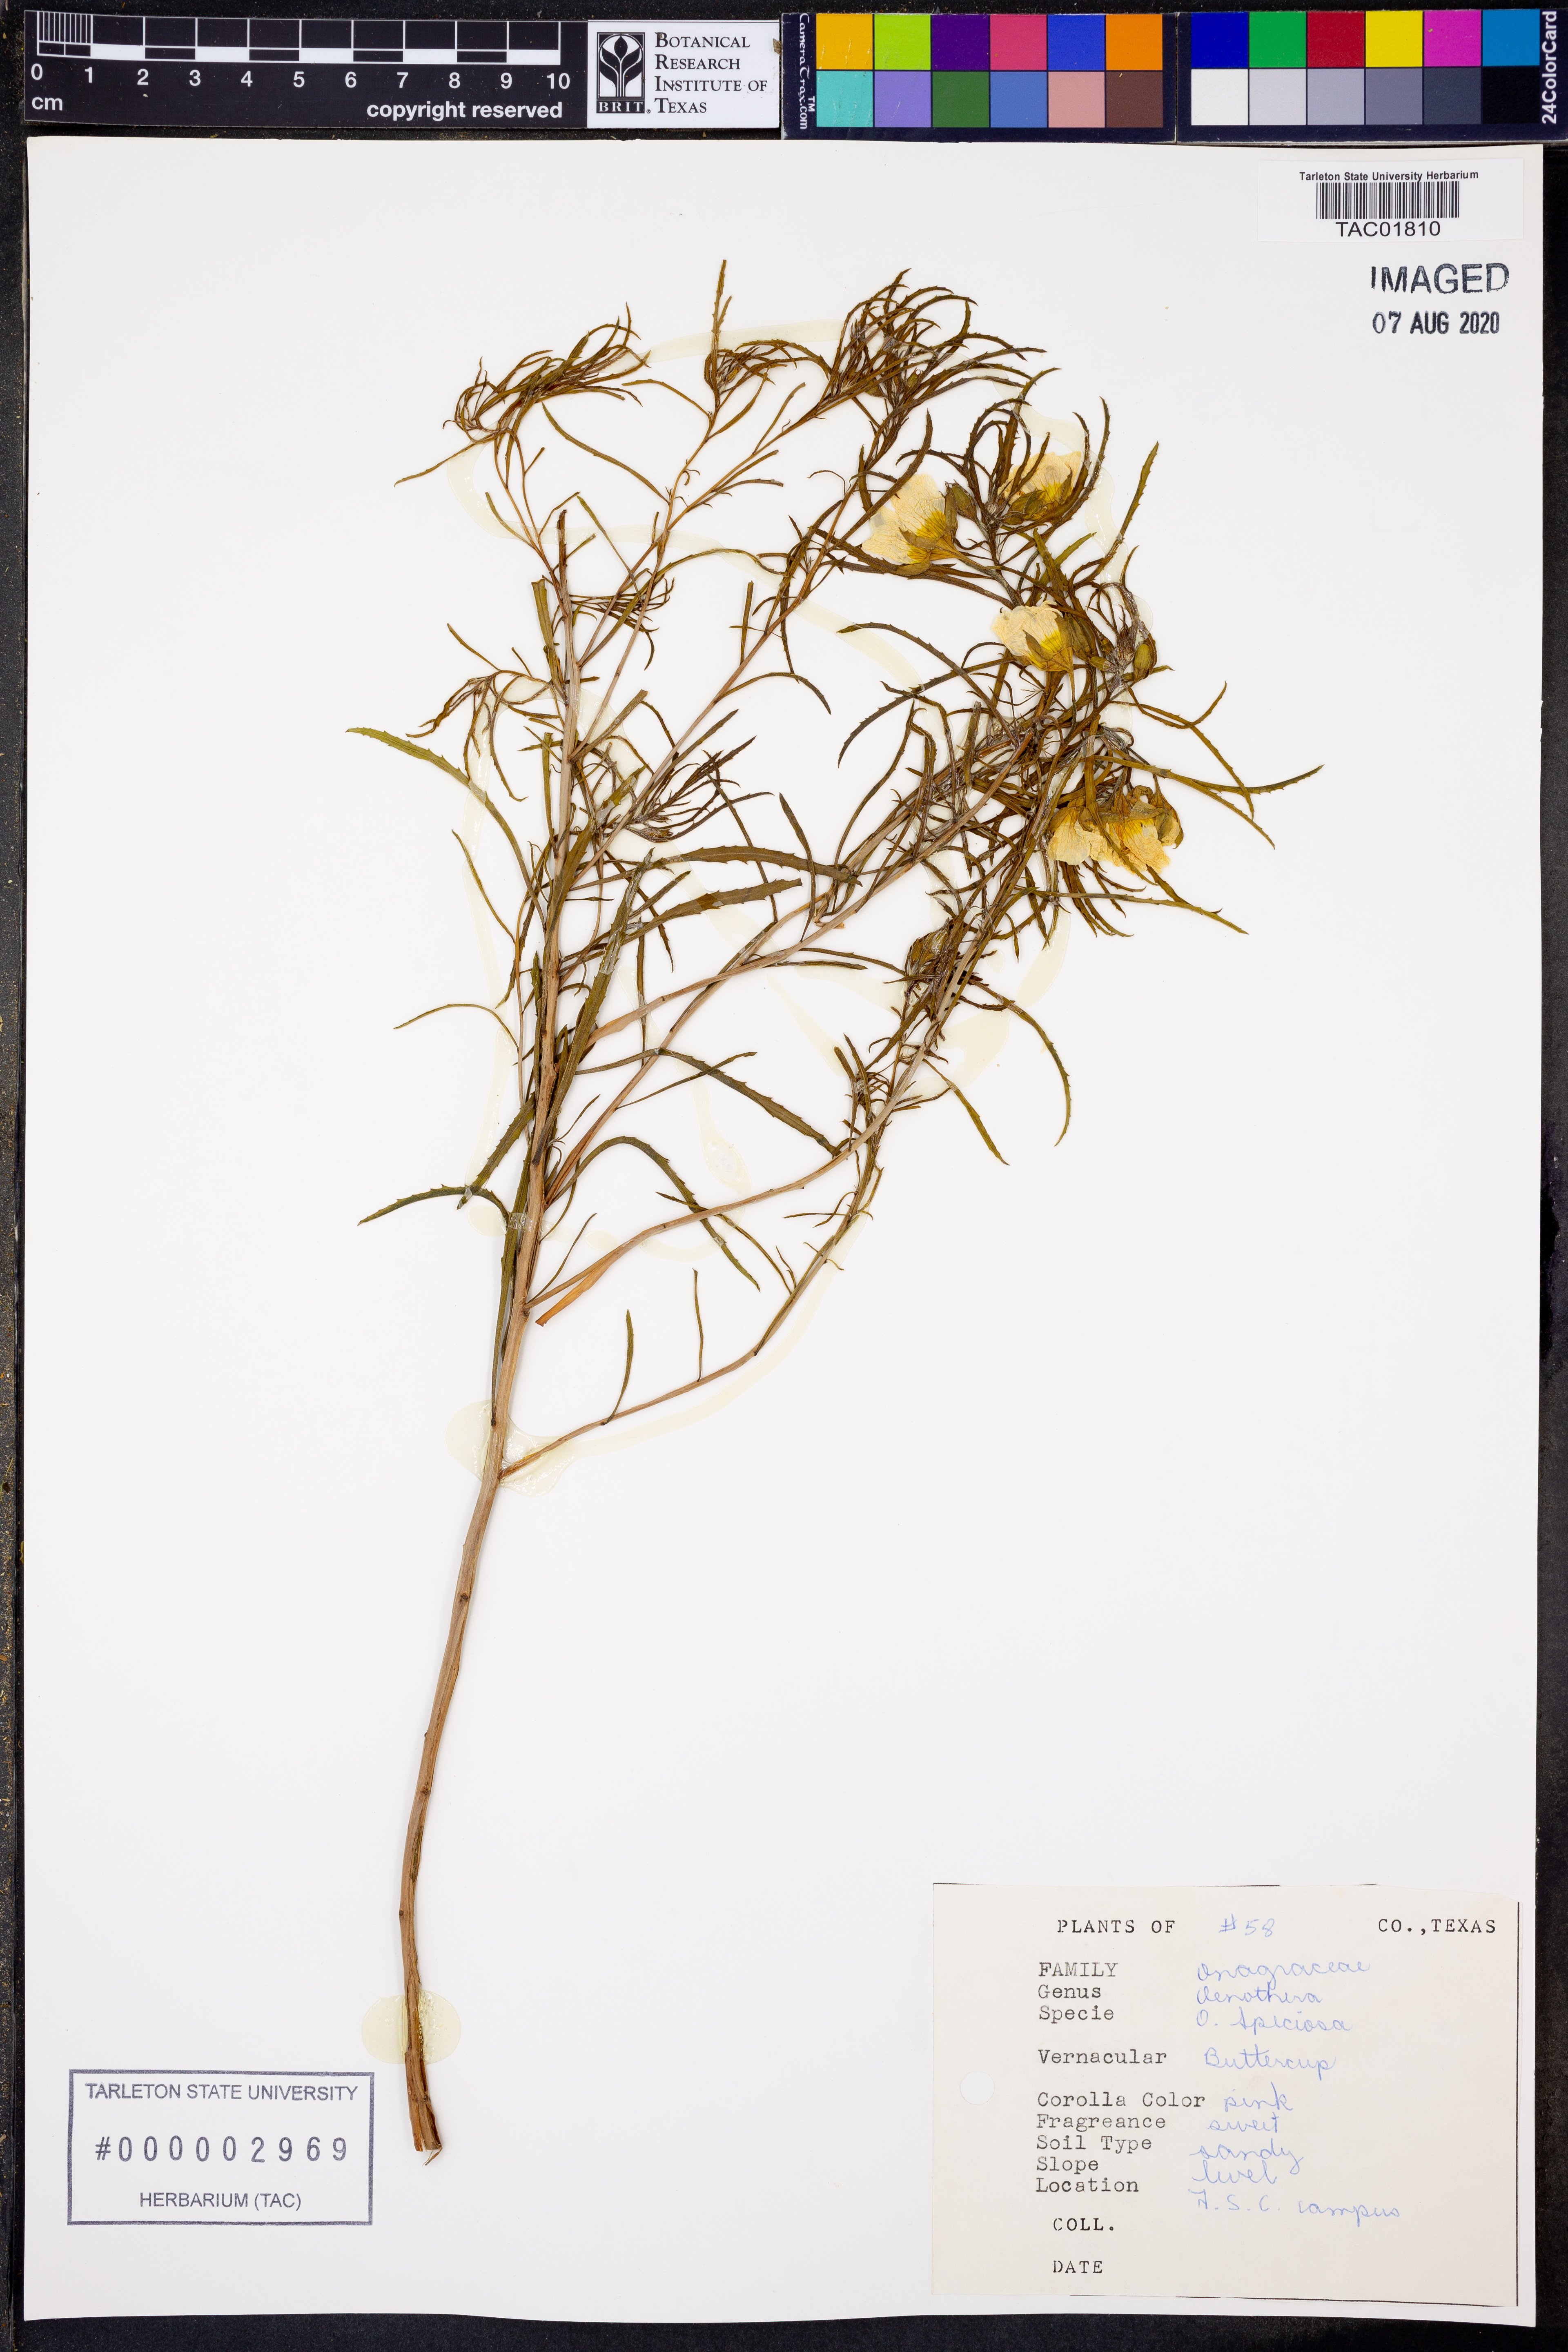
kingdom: Plantae
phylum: Tracheophyta
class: Magnoliopsida
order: Myrtales
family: Onagraceae
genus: Oenothera
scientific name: Oenothera speciosa
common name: White evening-primrose
